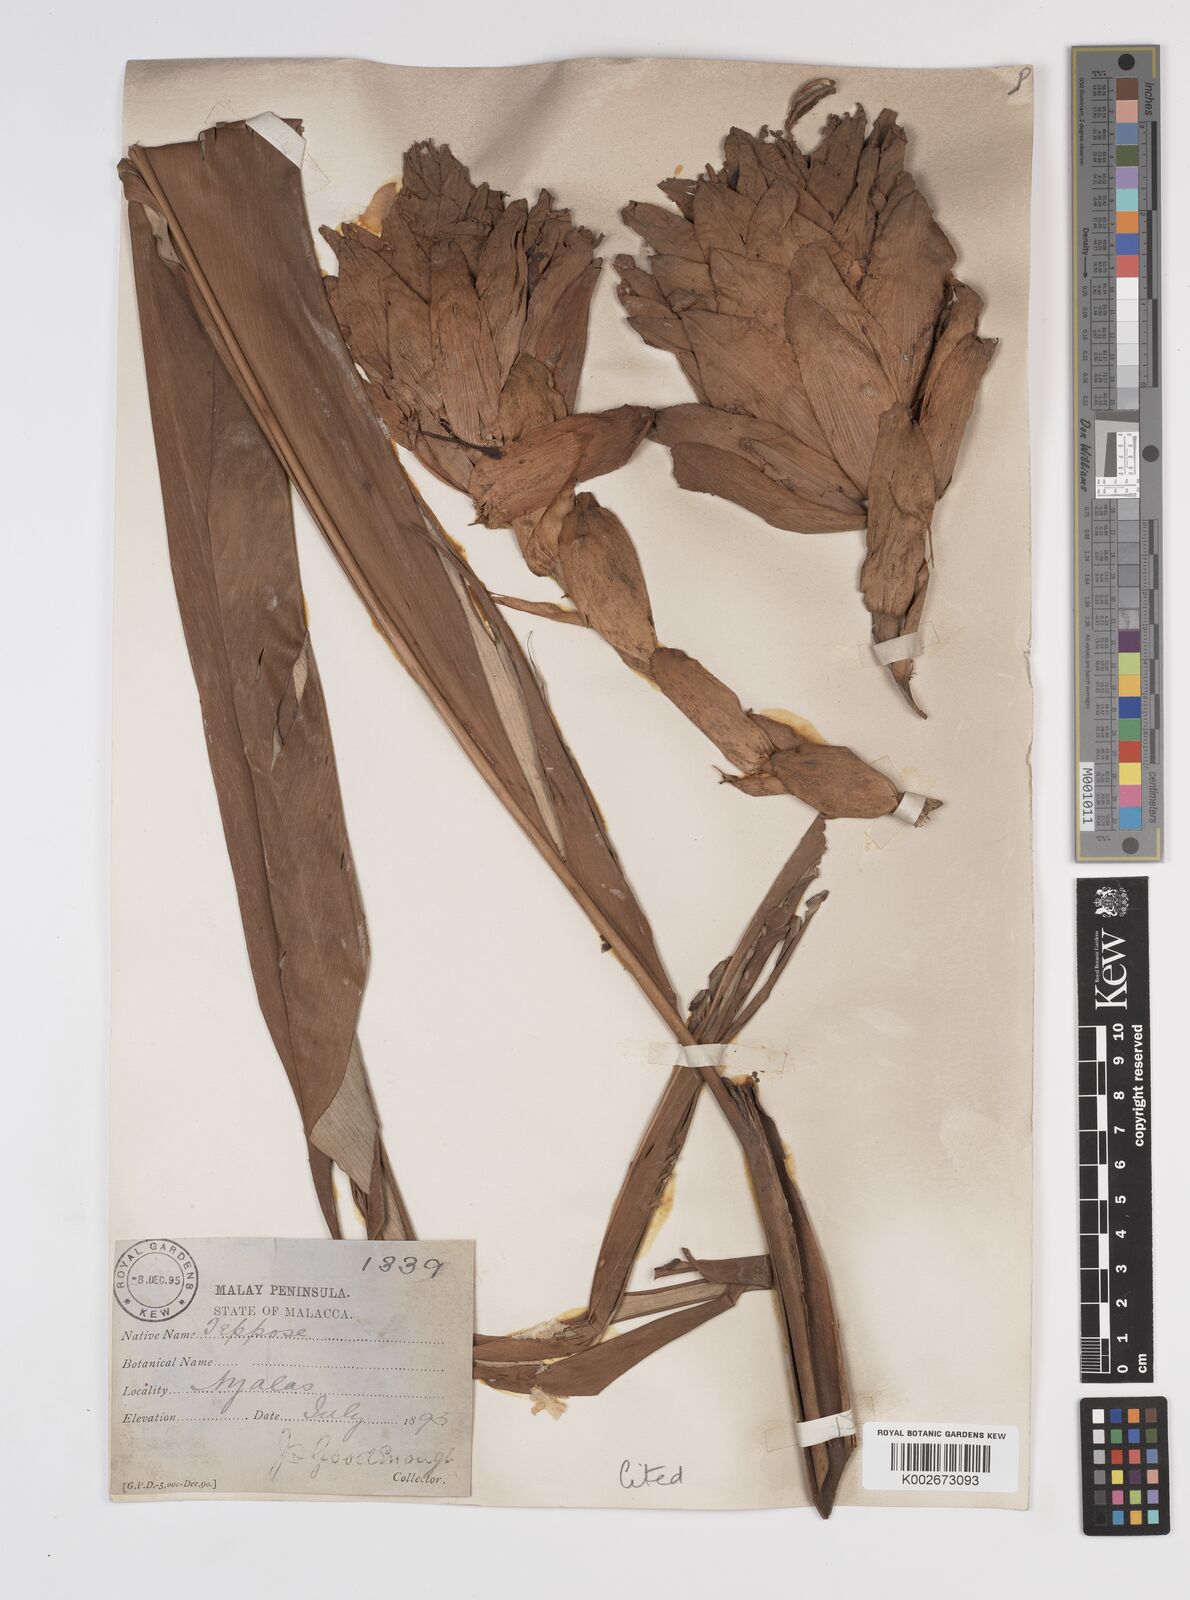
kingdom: Plantae
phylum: Tracheophyta
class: Liliopsida
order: Zingiberales
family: Zingiberaceae
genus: Conamomum
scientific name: Conamomum xanthophlebium
